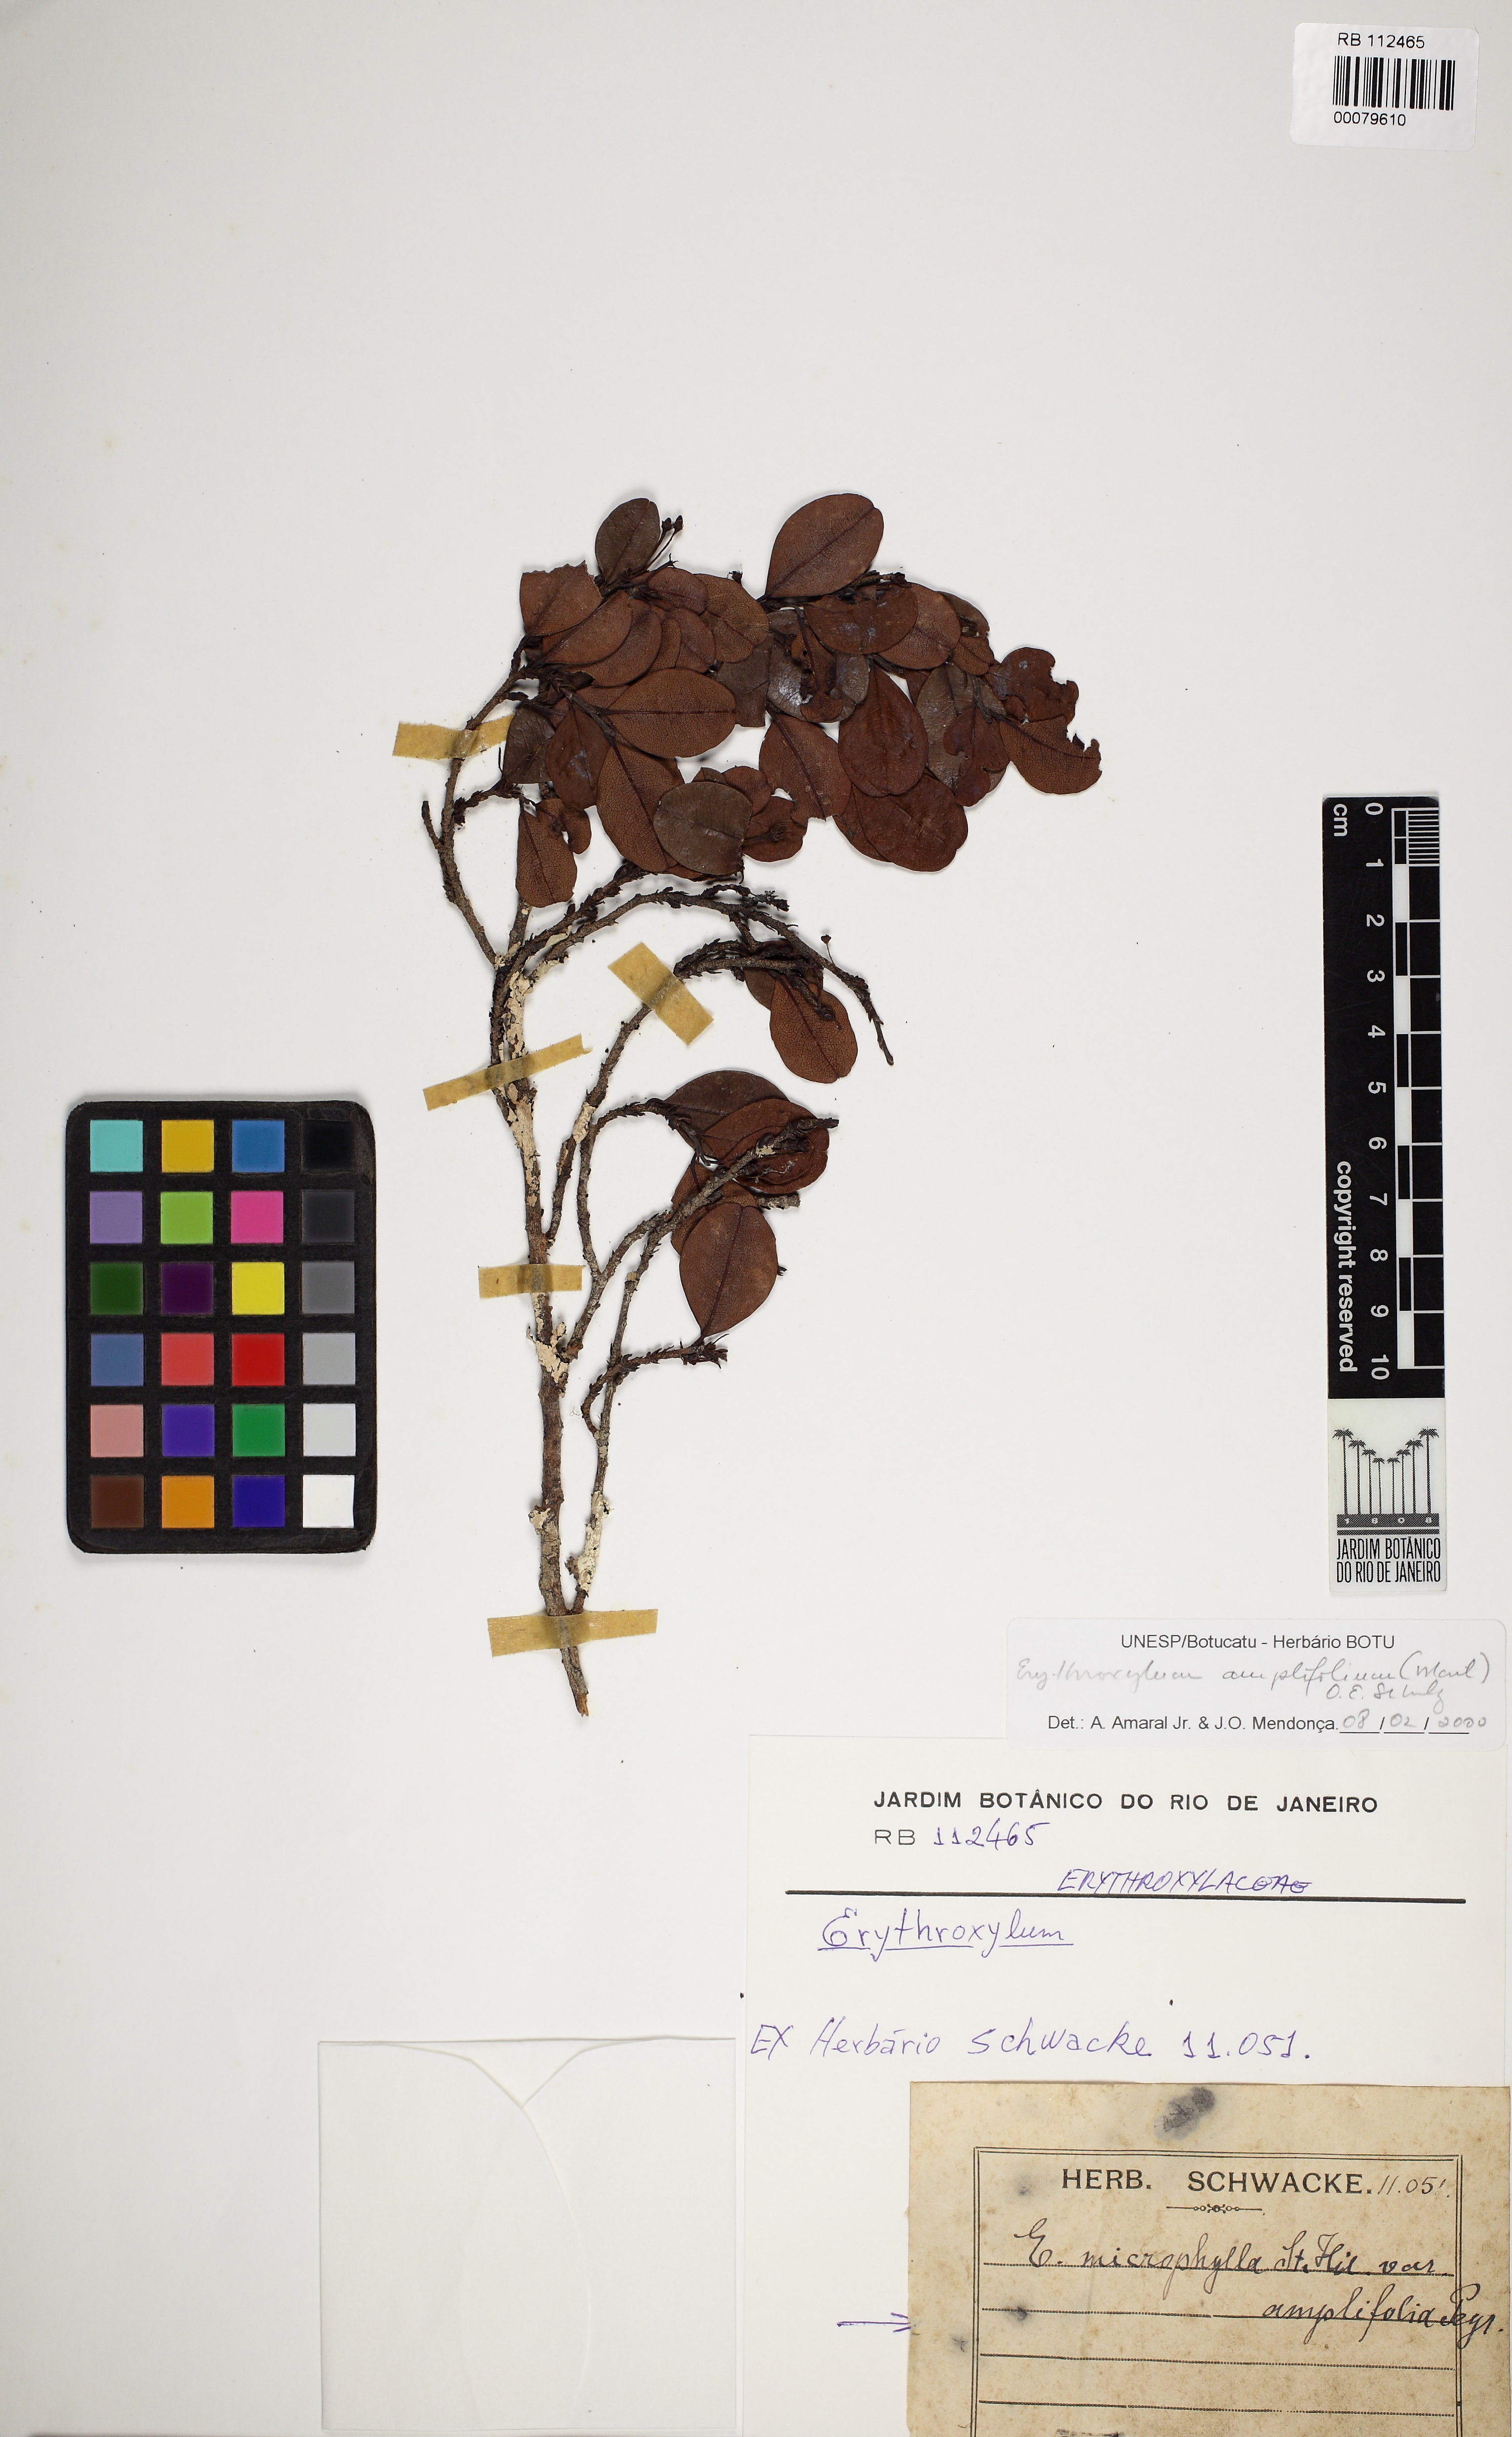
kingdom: Plantae
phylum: Tracheophyta
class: Magnoliopsida
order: Malpighiales
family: Erythroxylaceae
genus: Erythroxylum
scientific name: Erythroxylum umbu
